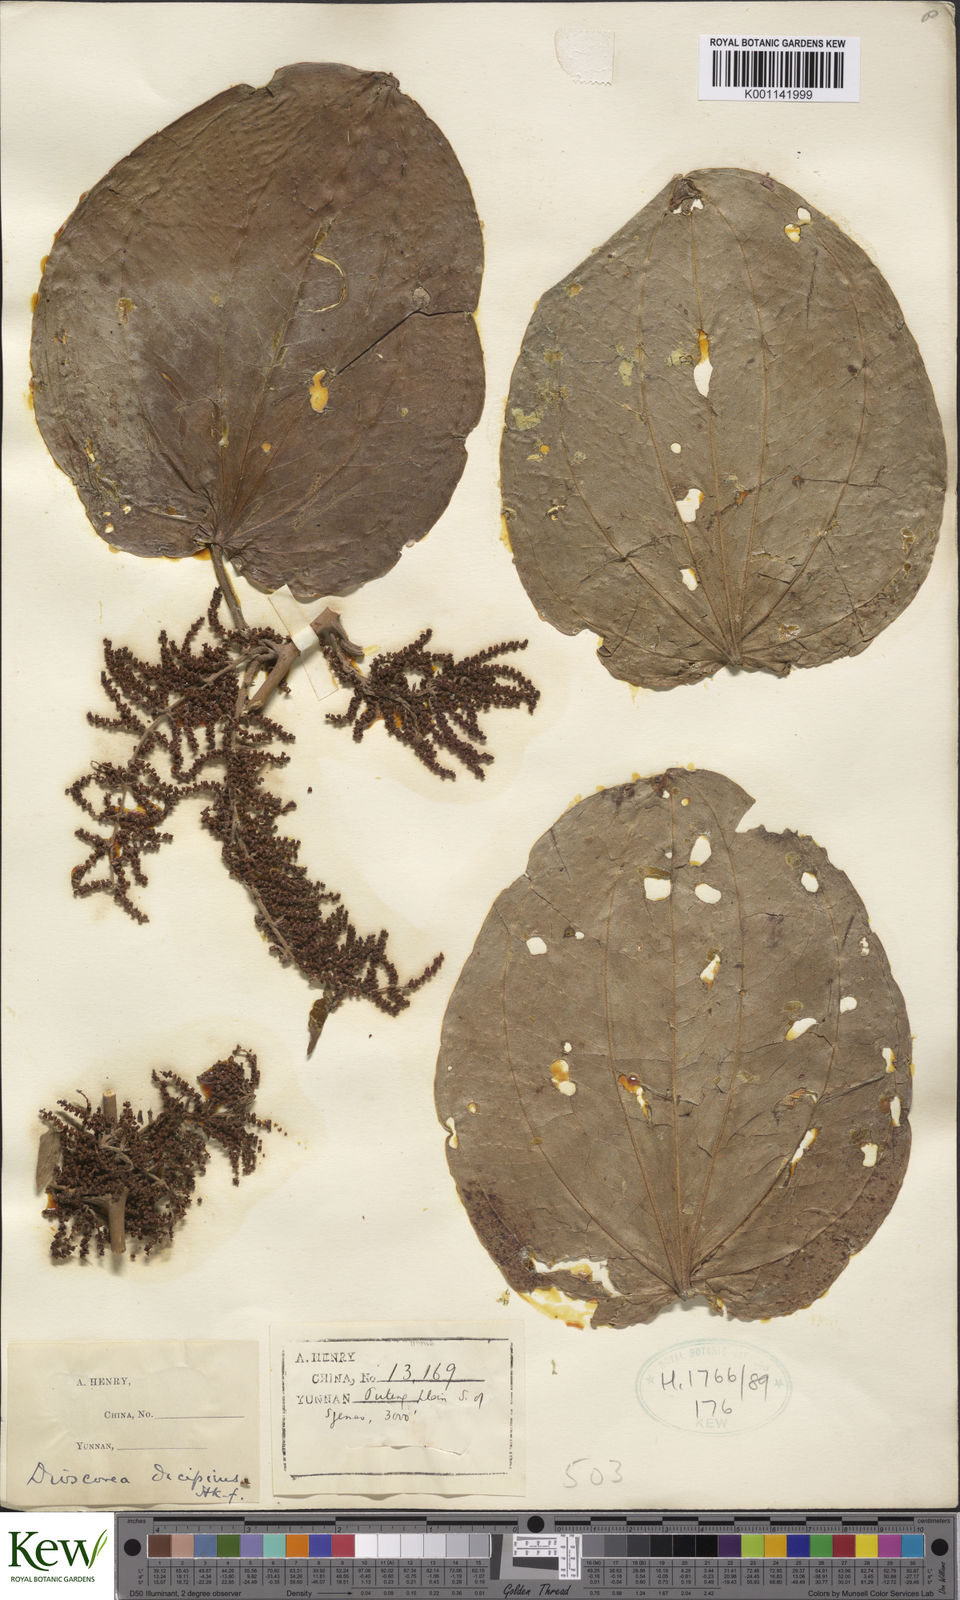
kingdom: Plantae
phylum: Tracheophyta
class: Liliopsida
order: Dioscoreales
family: Dioscoreaceae
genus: Dioscorea
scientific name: Dioscorea decipiens
